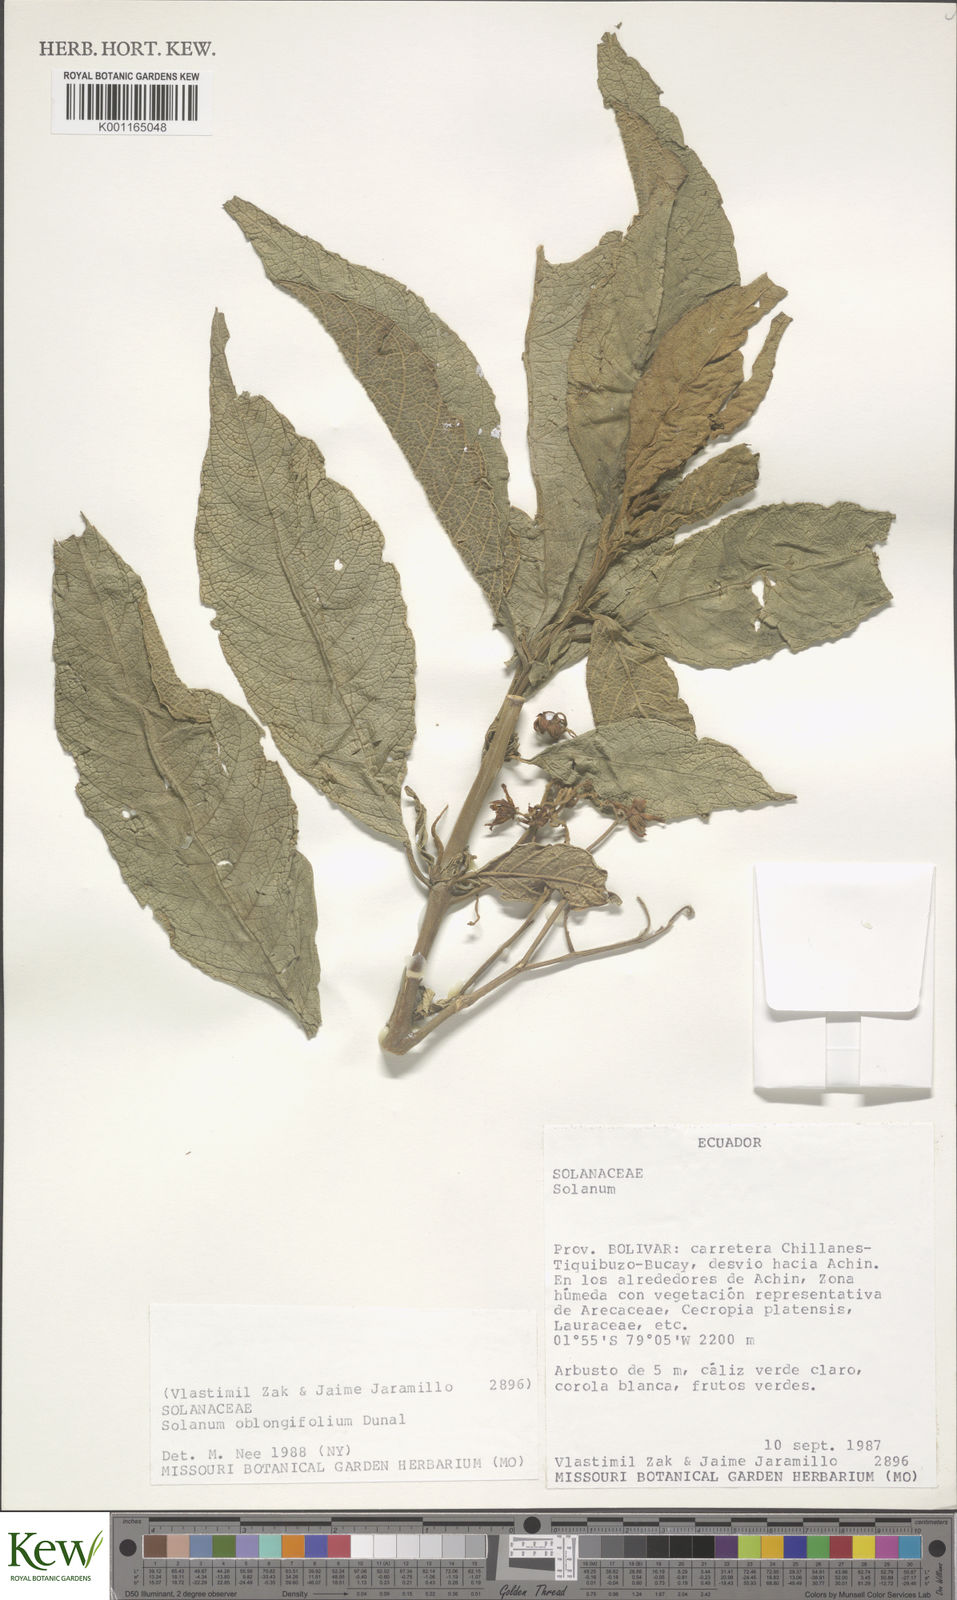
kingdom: Plantae
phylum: Tracheophyta
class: Magnoliopsida
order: Solanales
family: Solanaceae
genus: Solanum
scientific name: Solanum oblongifolium
